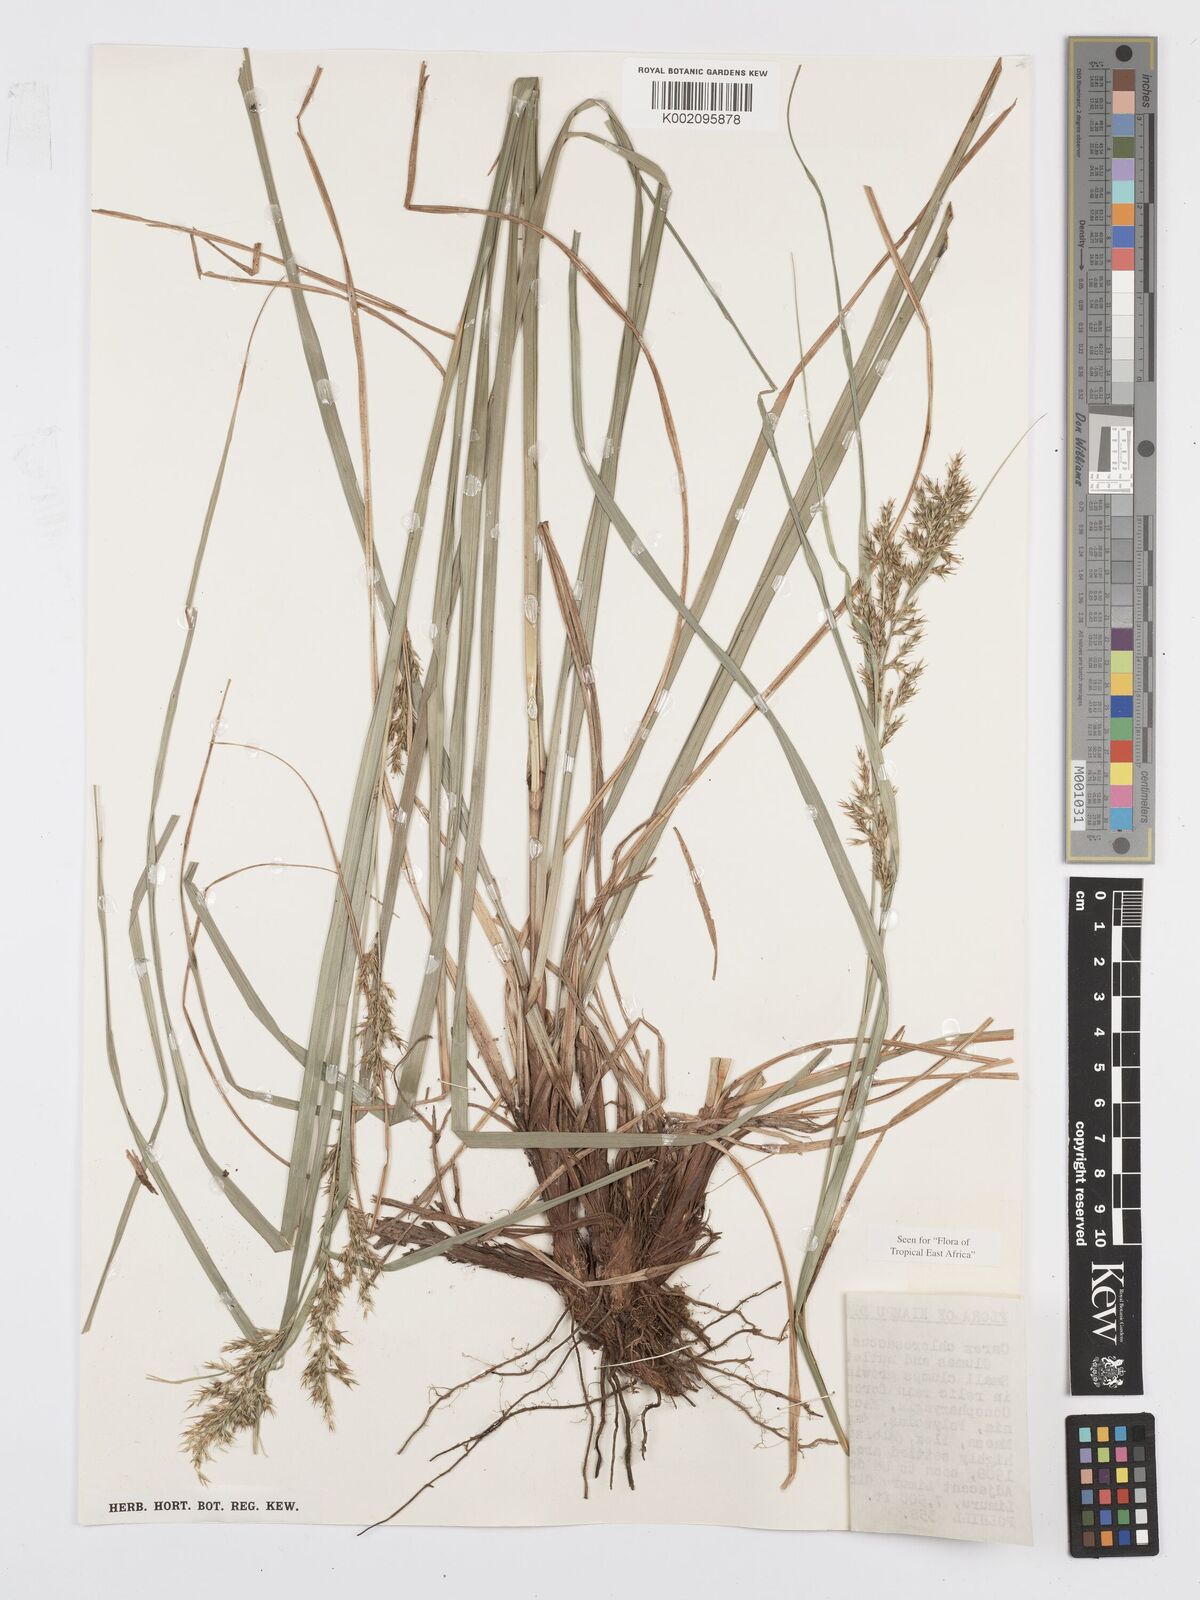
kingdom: Plantae
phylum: Tracheophyta
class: Liliopsida
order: Poales
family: Cyperaceae
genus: Carex
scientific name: Carex chlorosaccus
